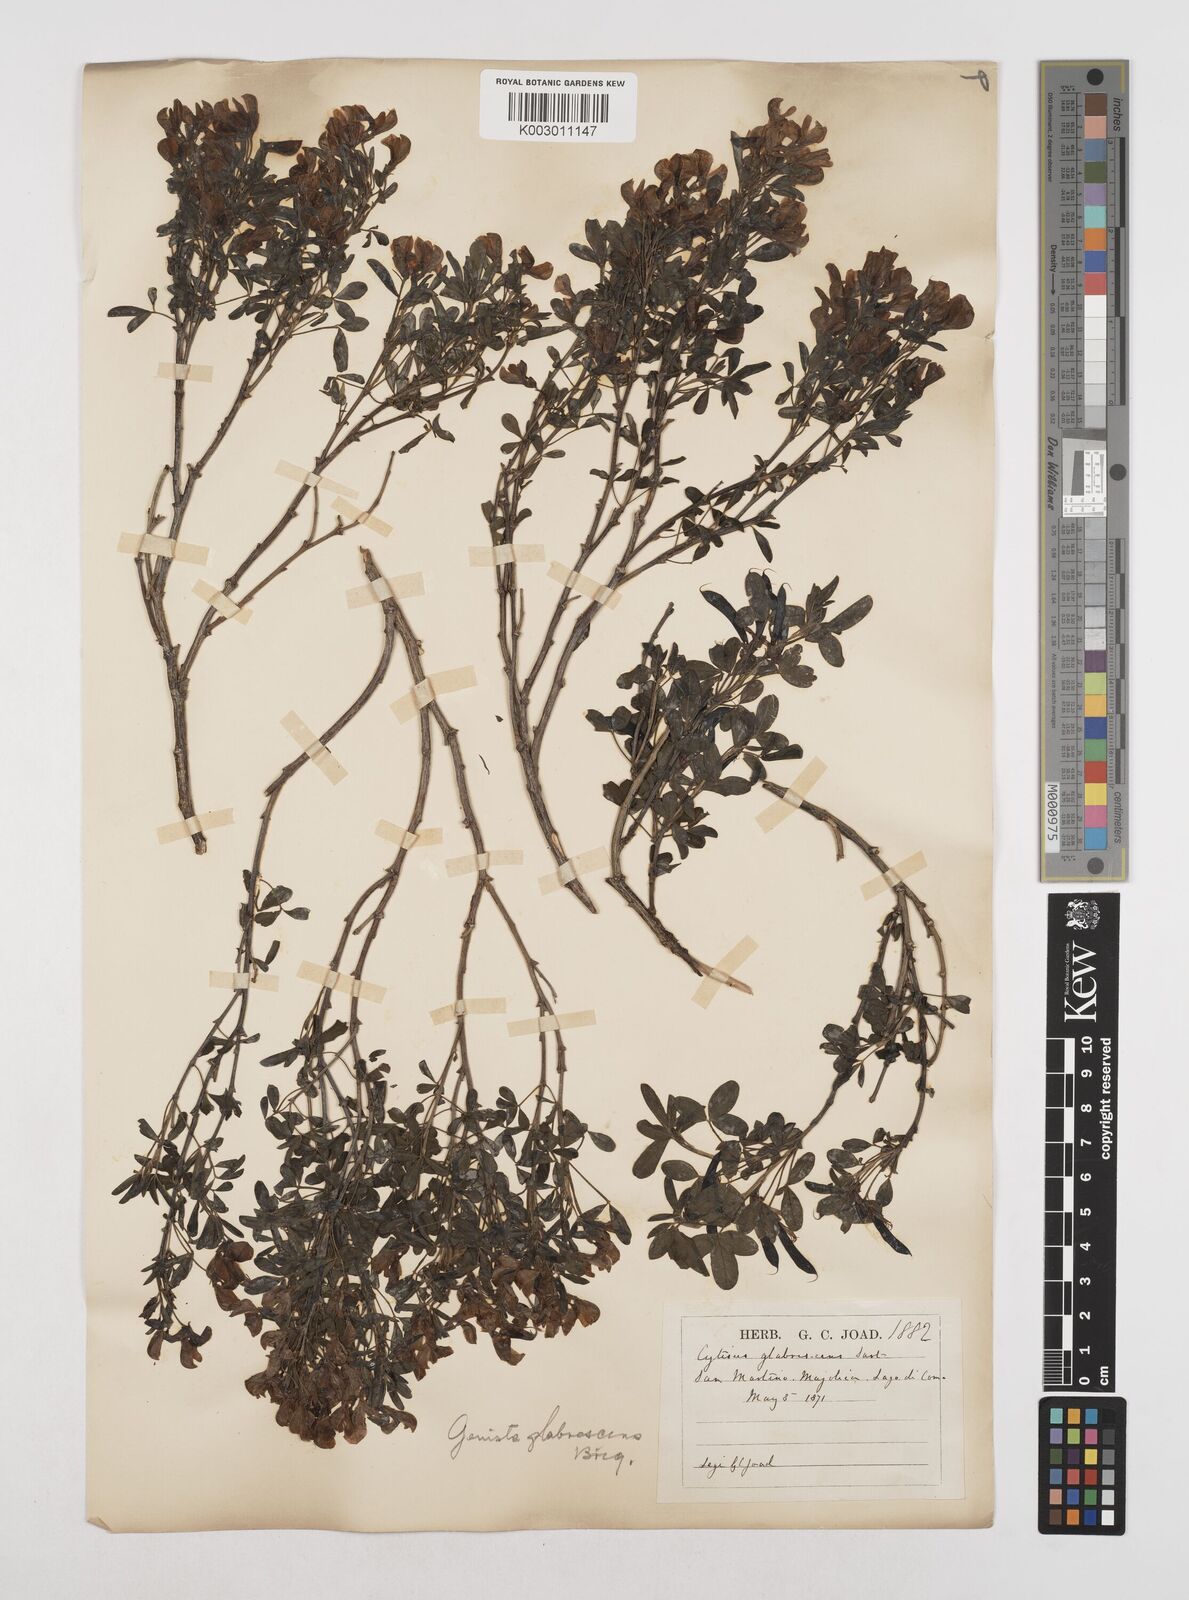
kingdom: Plantae
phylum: Tracheophyta
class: Magnoliopsida
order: Fabales
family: Fabaceae
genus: Cytisus
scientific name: Cytisus emeriflorus
